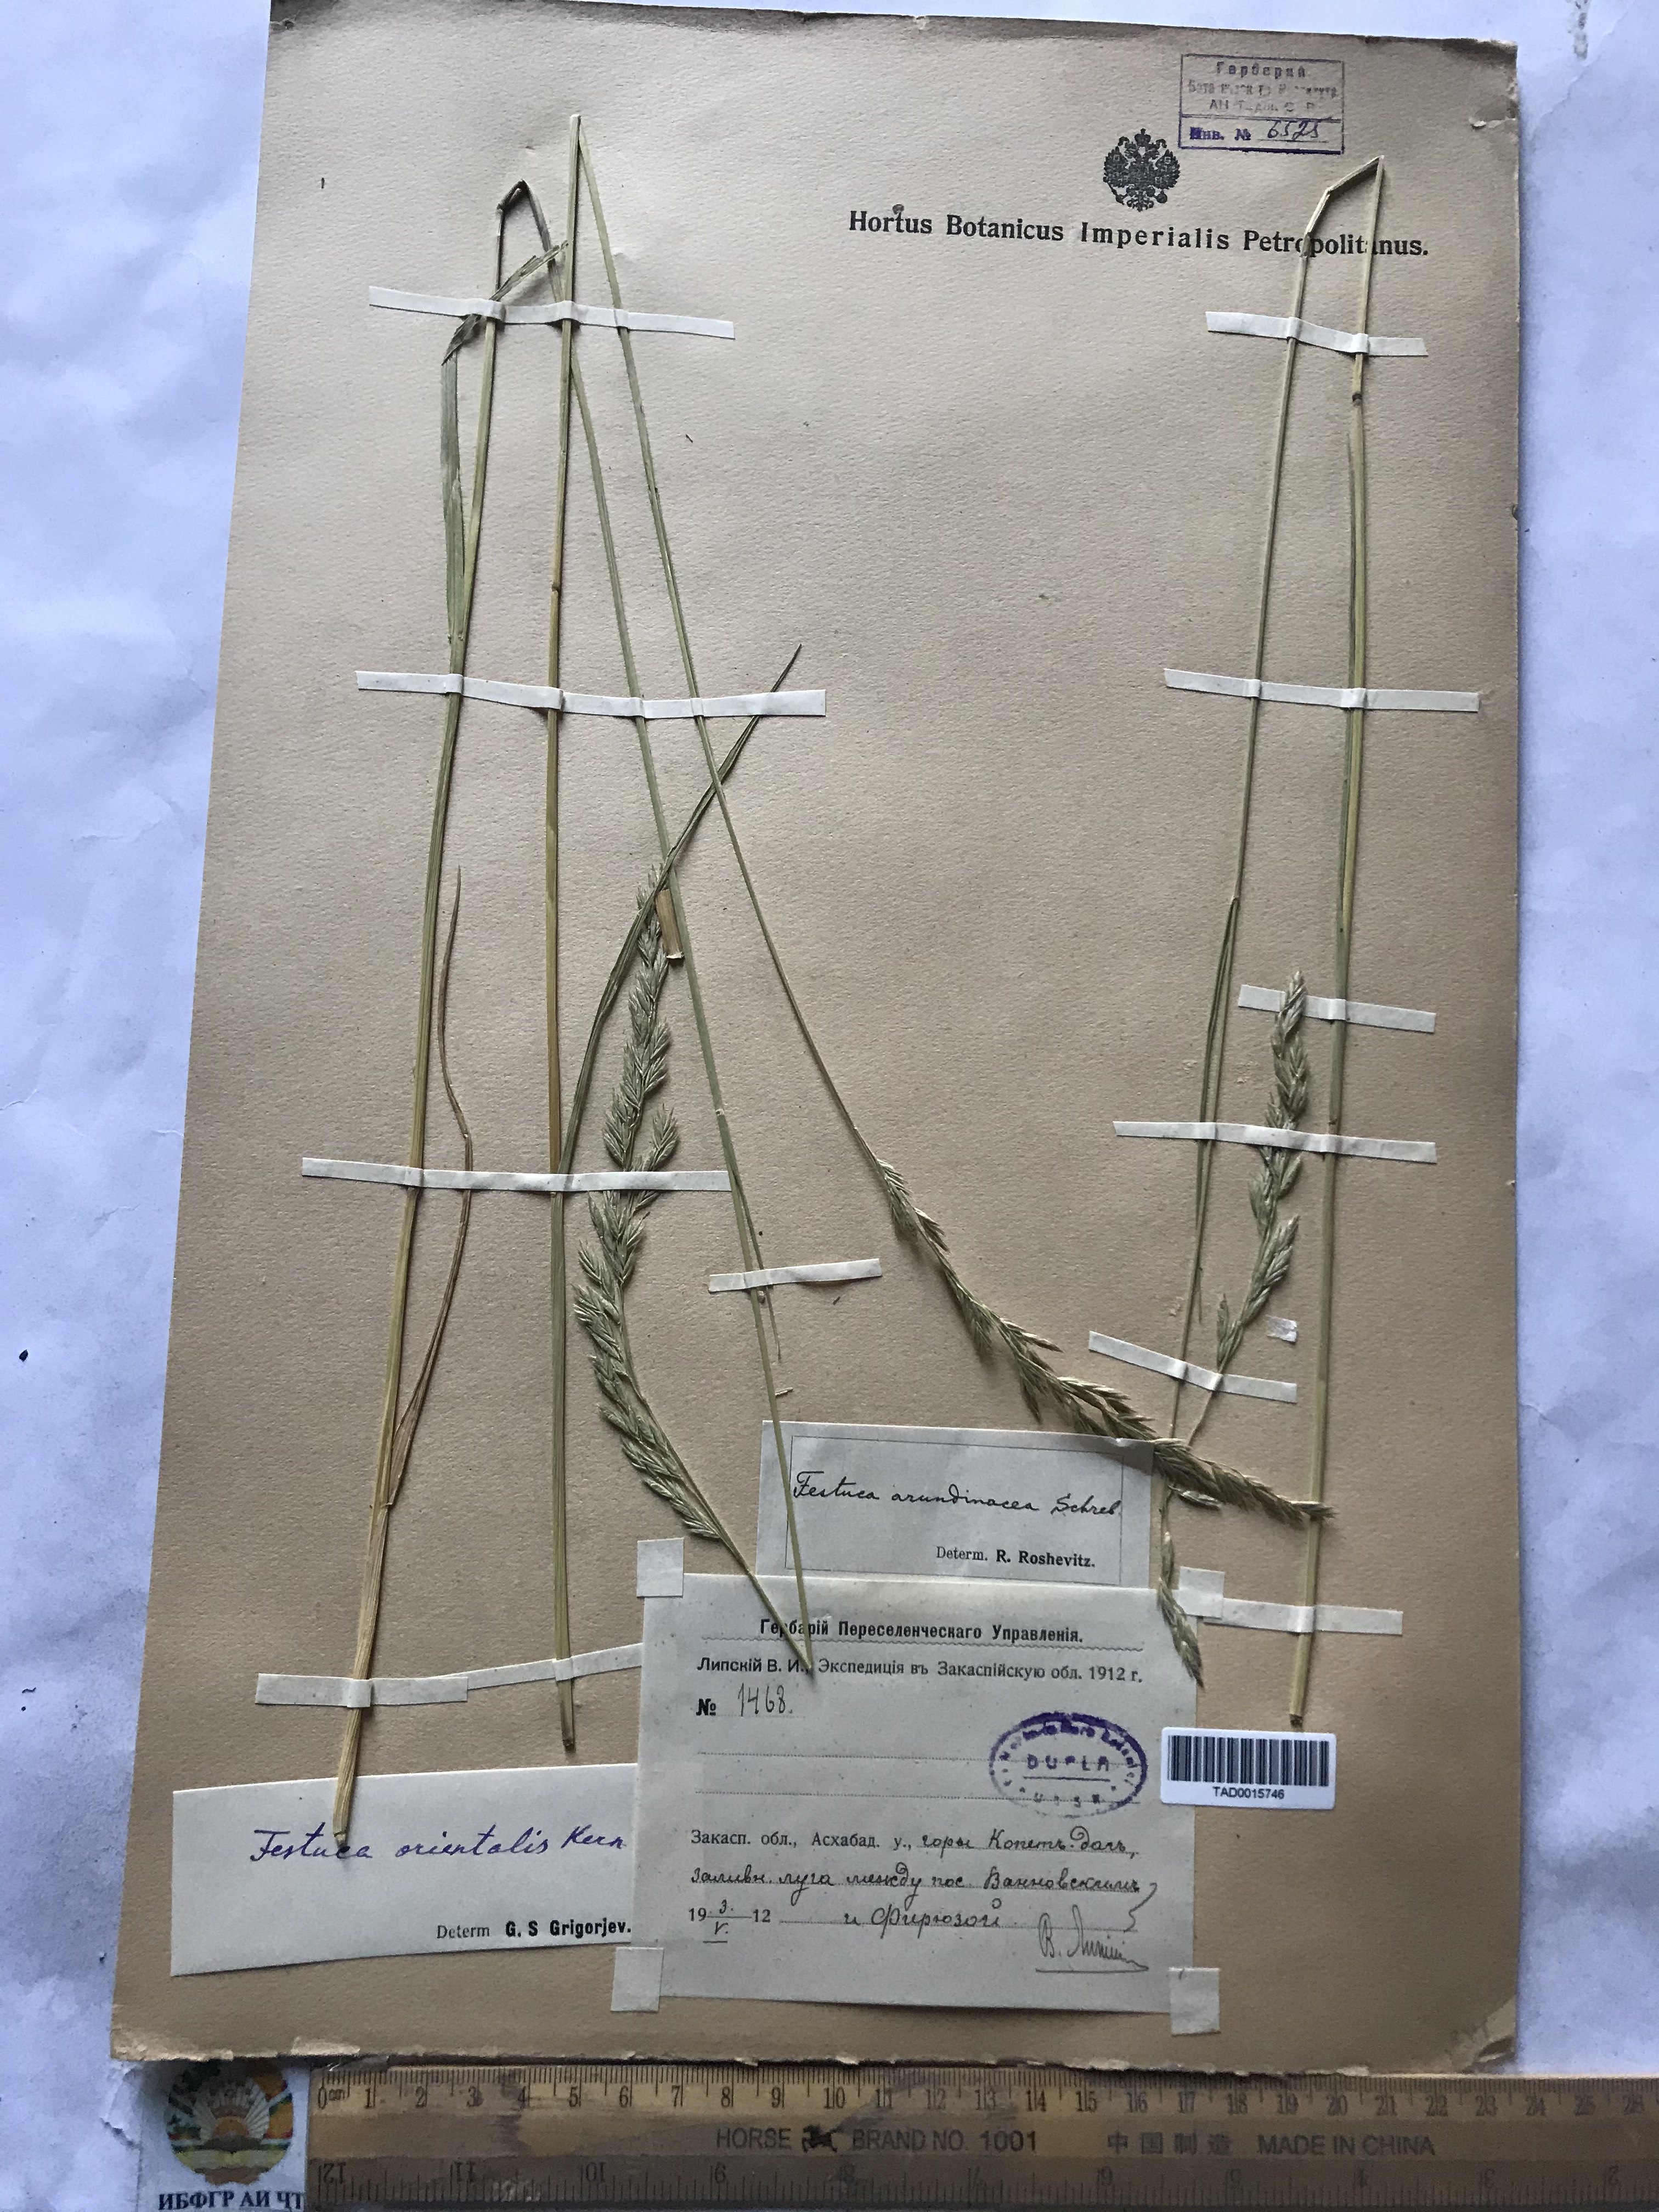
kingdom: Plantae
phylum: Tracheophyta
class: Liliopsida
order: Poales
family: Poaceae
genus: Lolium
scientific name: Lolium arundinaceum
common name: Reed fescue
